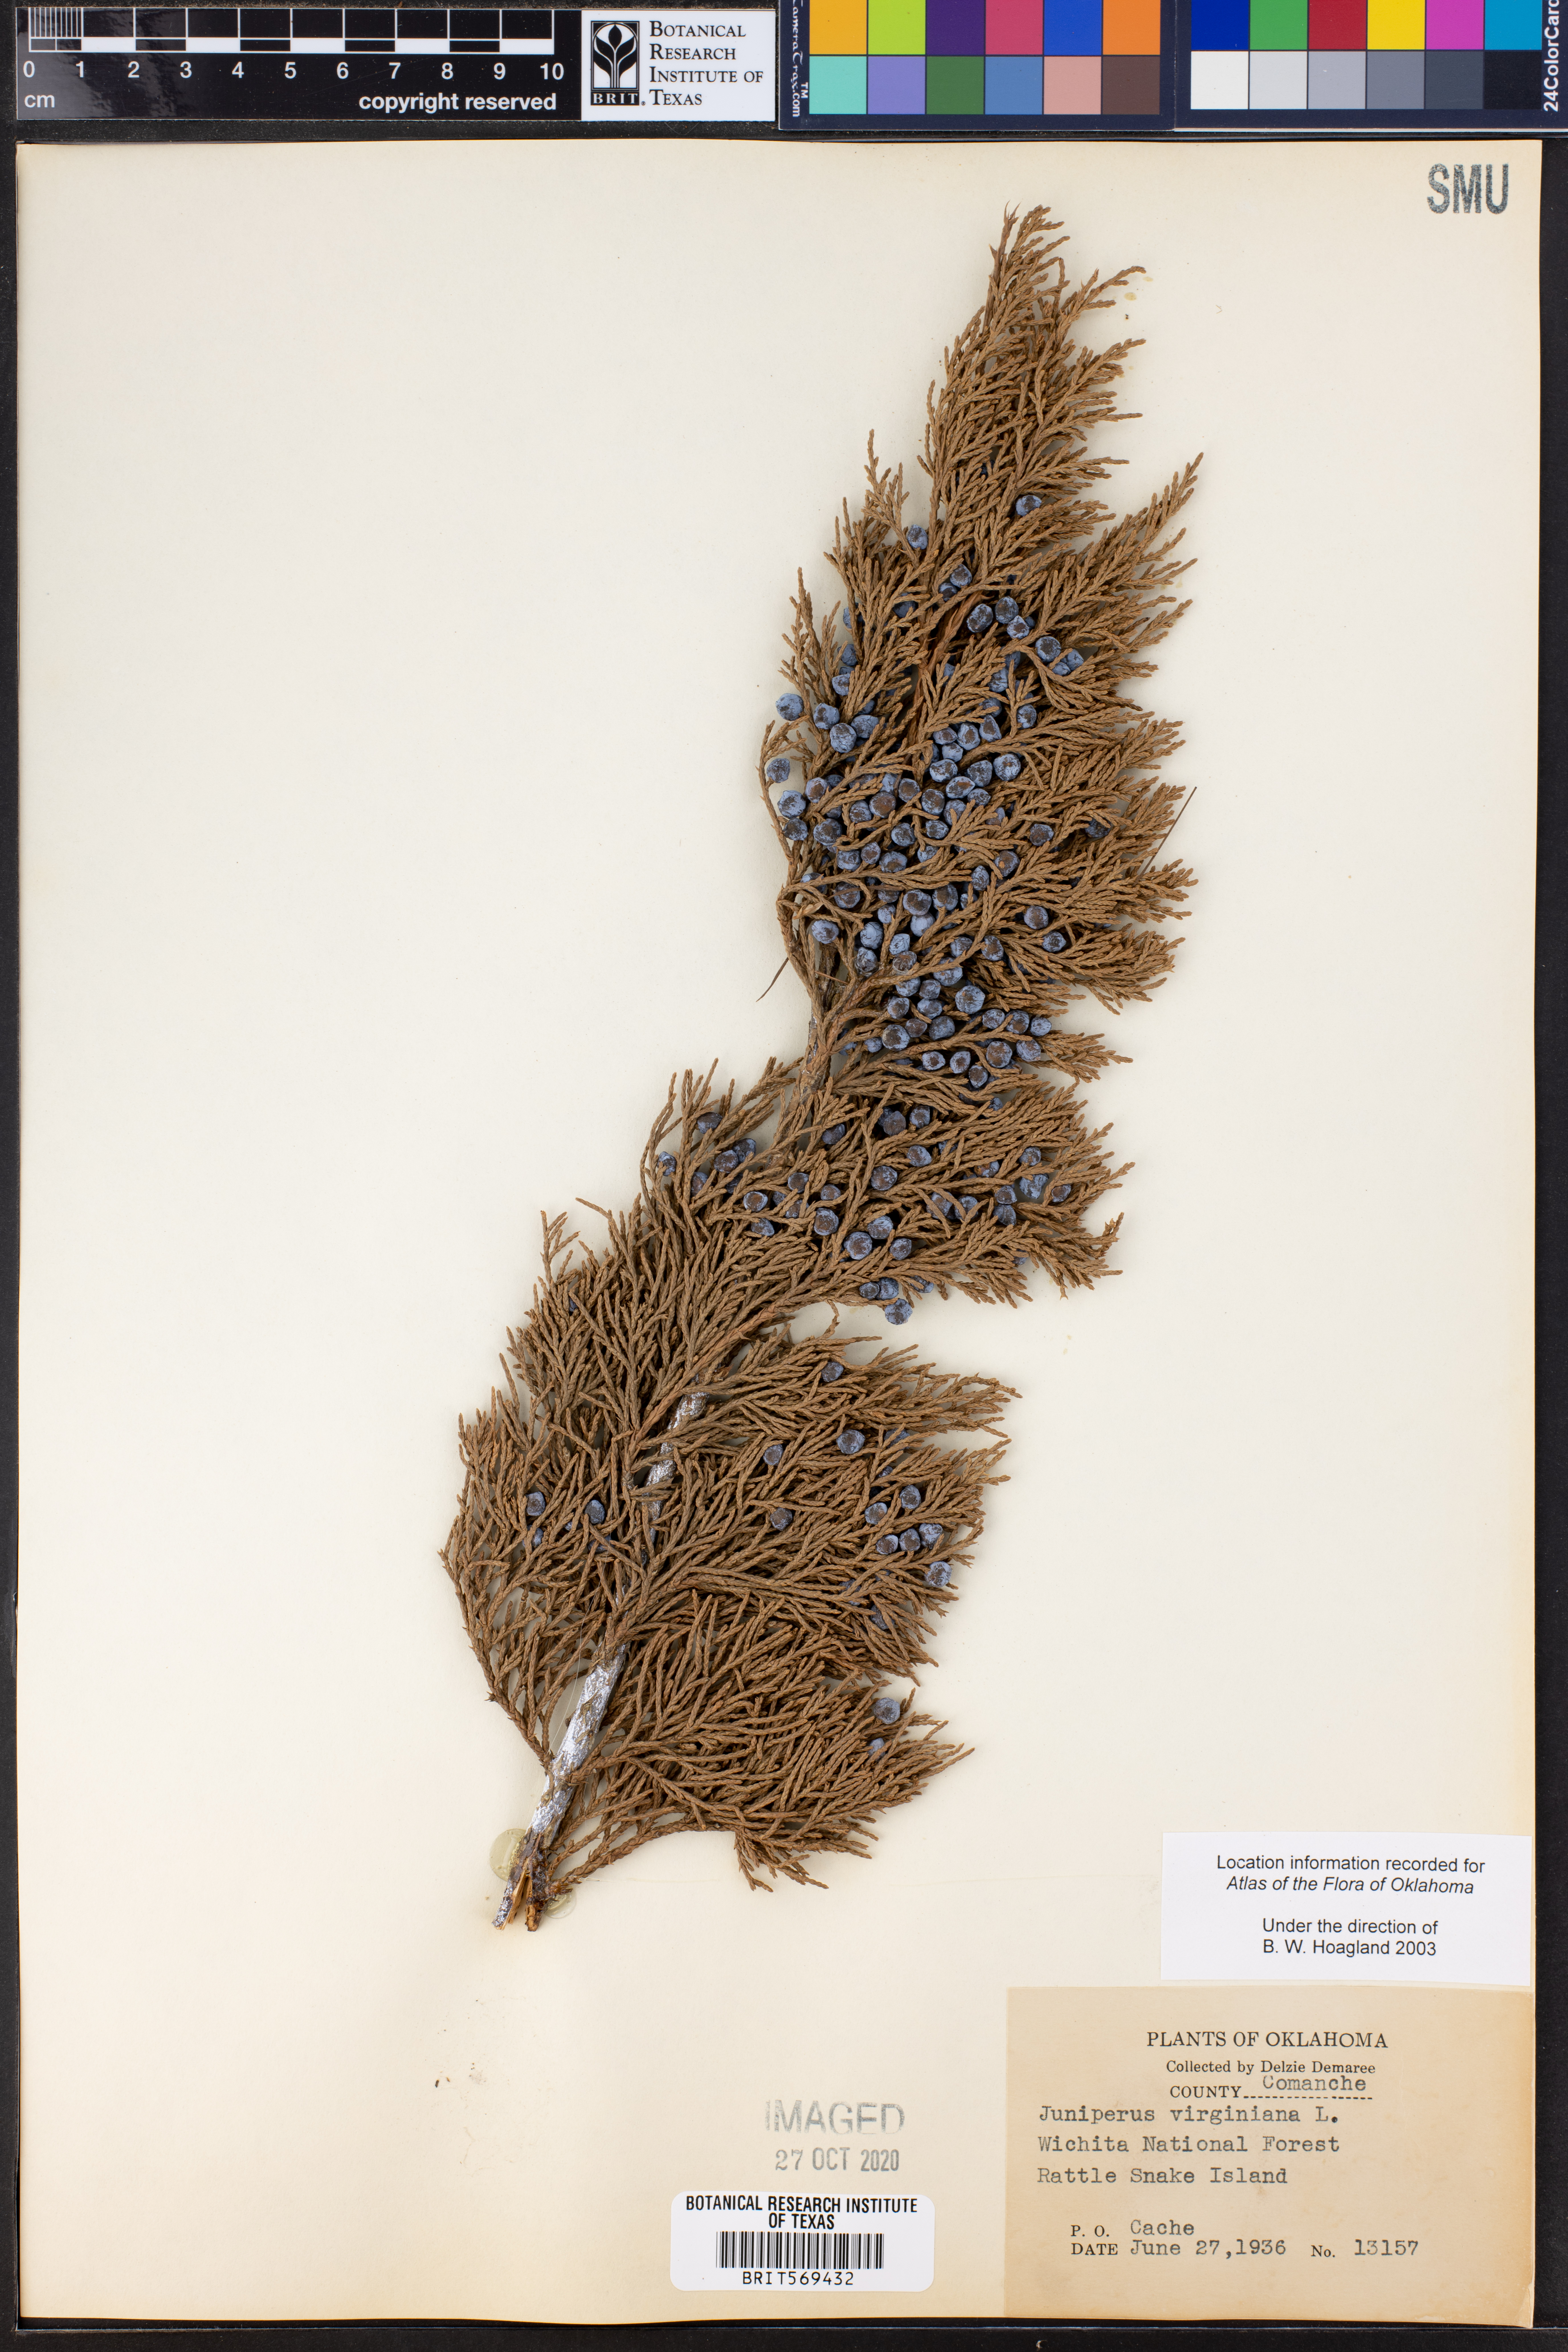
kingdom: Plantae
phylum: Tracheophyta
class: Pinopsida
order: Pinales
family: Cupressaceae
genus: Juniperus
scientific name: Juniperus virginiana
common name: Red juniper
